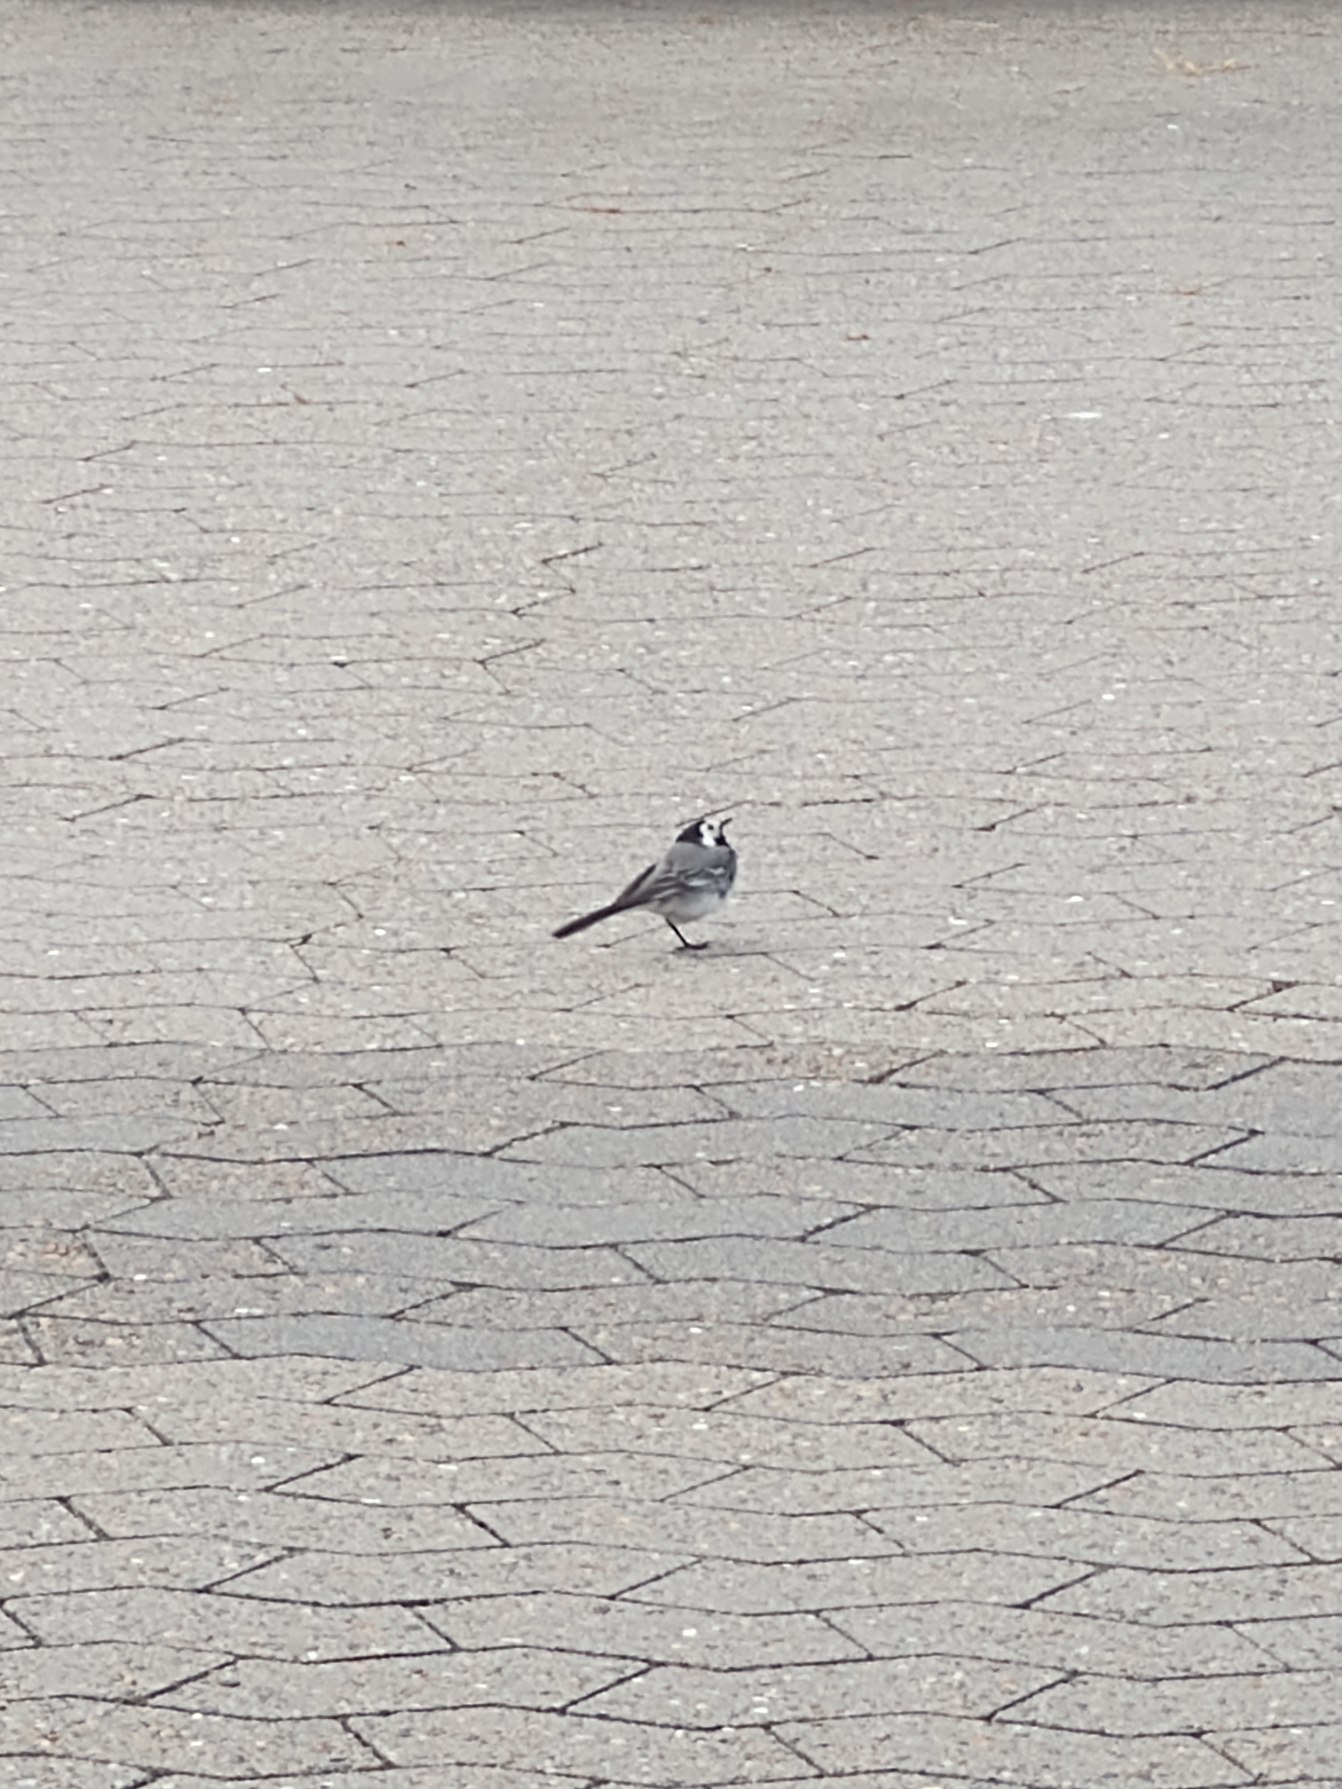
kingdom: Animalia
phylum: Chordata
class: Aves
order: Passeriformes
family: Motacillidae
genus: Motacilla
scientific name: Motacilla alba
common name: Hvid vipstjert
